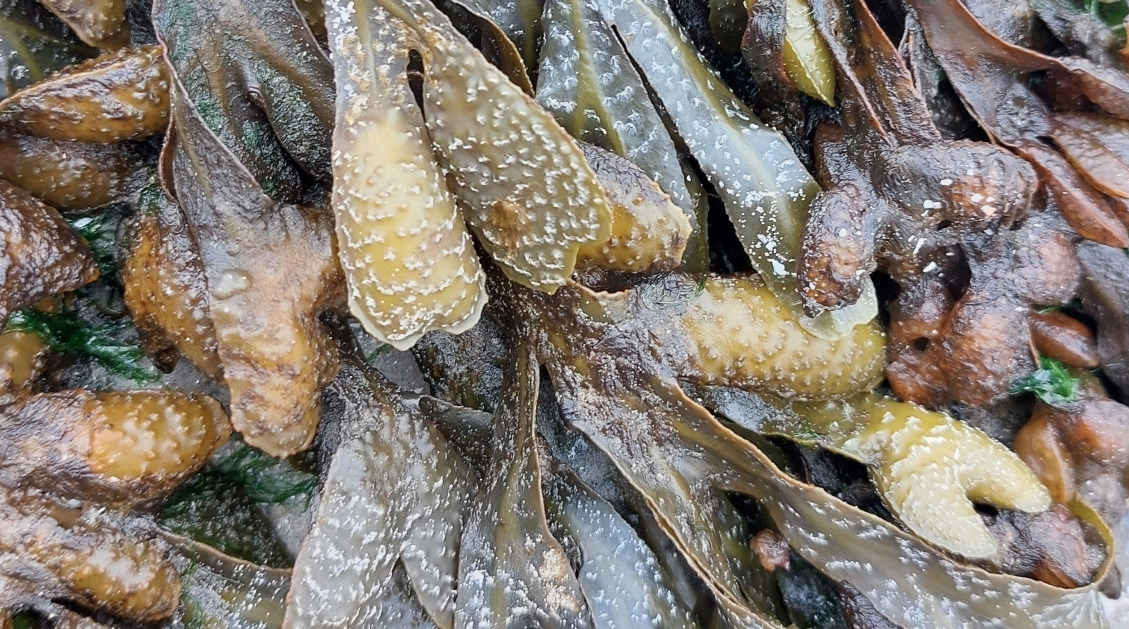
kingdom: Chromista
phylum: Ochrophyta
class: Phaeophyceae
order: Fucales
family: Fucaceae
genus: Fucus
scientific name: Fucus spiralis
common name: Lav klørtang
